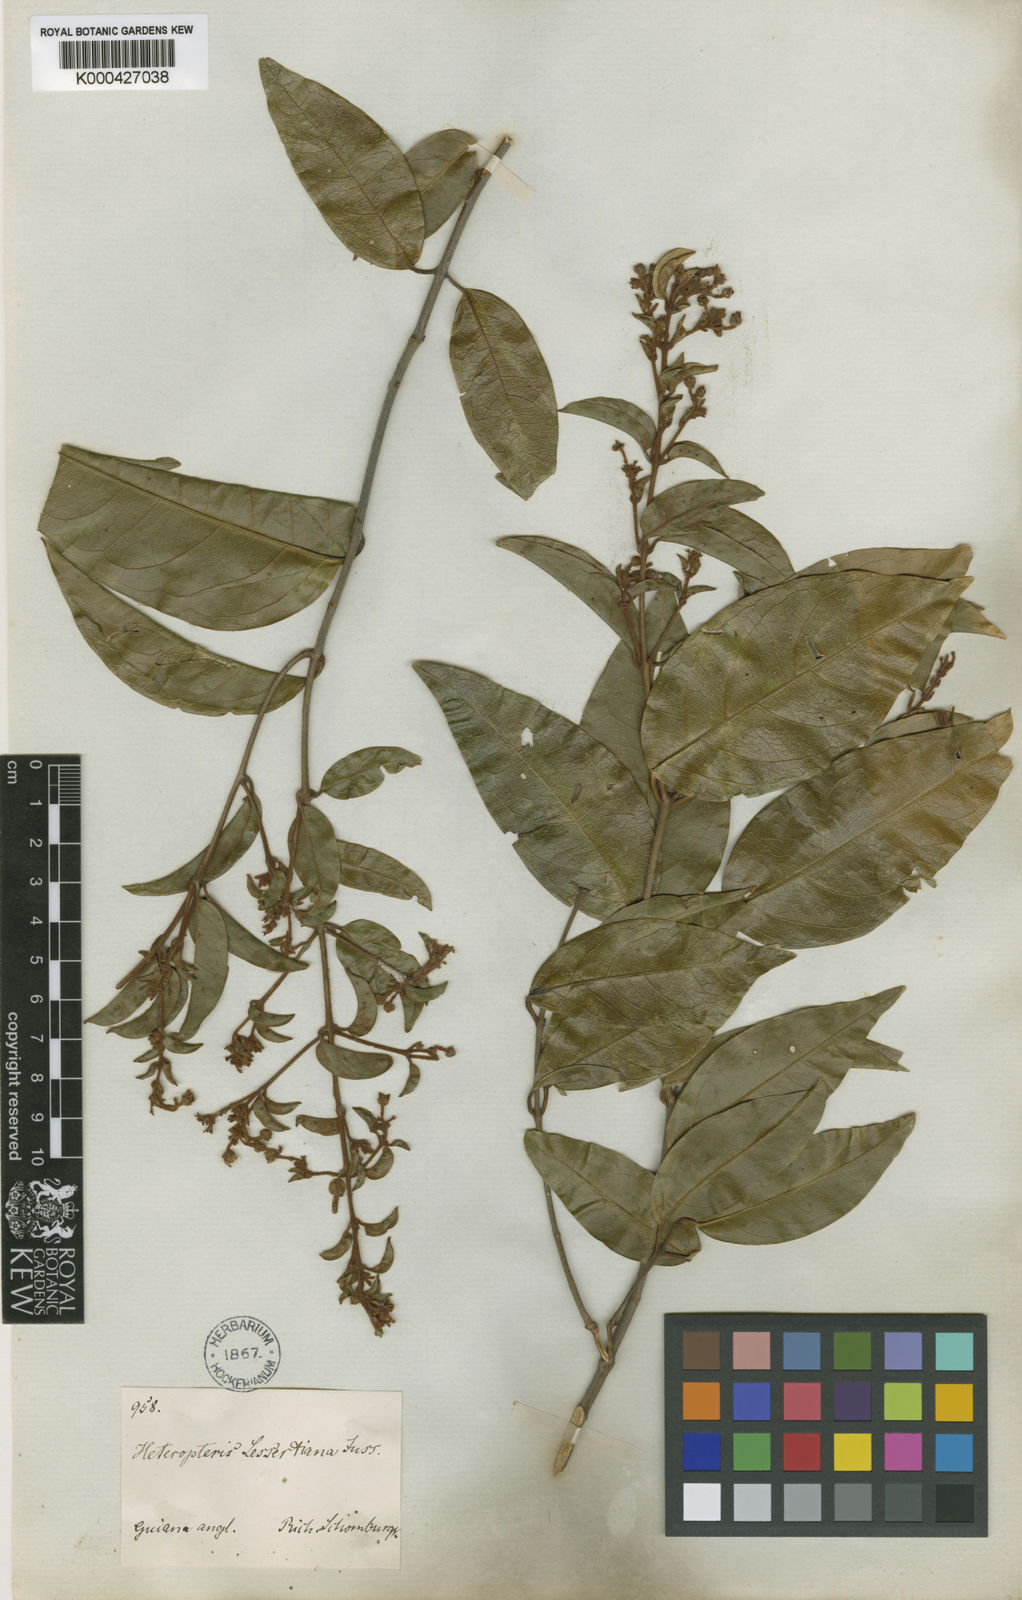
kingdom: Plantae
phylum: Tracheophyta
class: Magnoliopsida
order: Malpighiales
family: Malpighiaceae
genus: Heteropterys
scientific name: Heteropterys cristata
